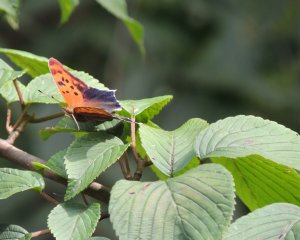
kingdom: Animalia
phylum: Arthropoda
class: Insecta
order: Lepidoptera
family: Nymphalidae
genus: Polygonia
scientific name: Polygonia interrogationis
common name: Question Mark
